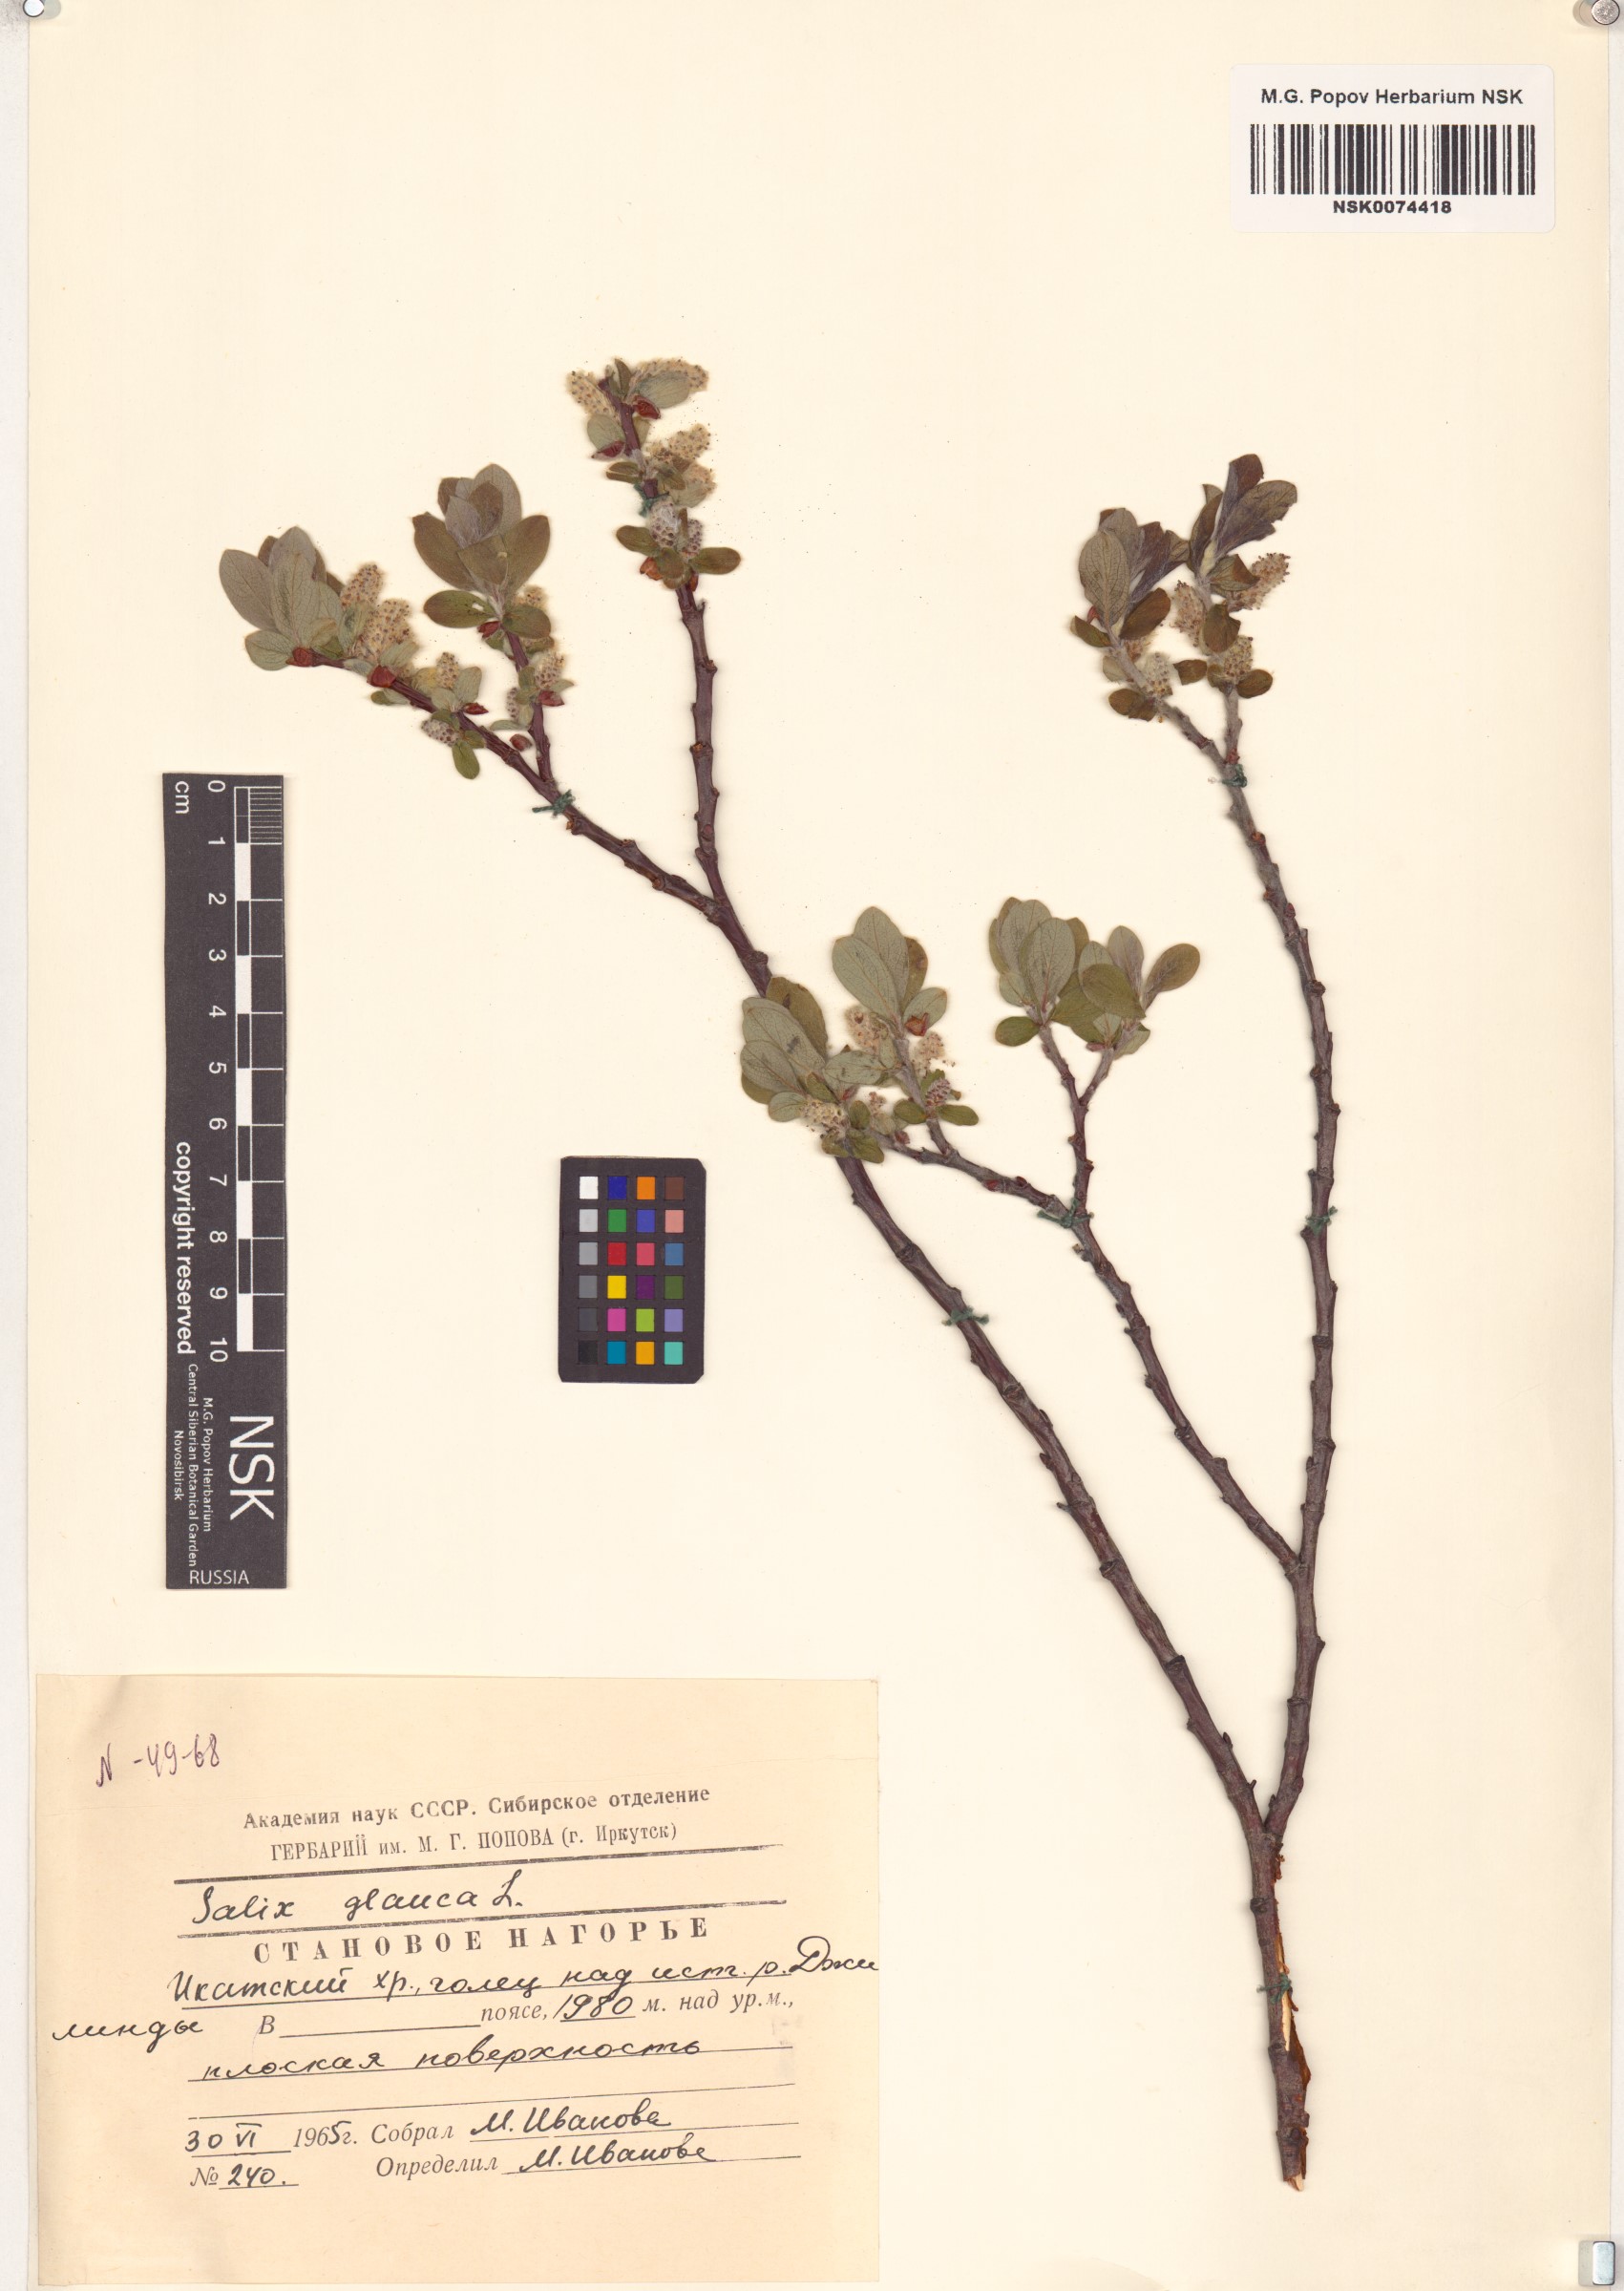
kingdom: Plantae
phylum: Tracheophyta
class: Magnoliopsida
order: Malpighiales
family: Salicaceae
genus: Salix
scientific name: Salix glauca
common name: Glaucous willow
